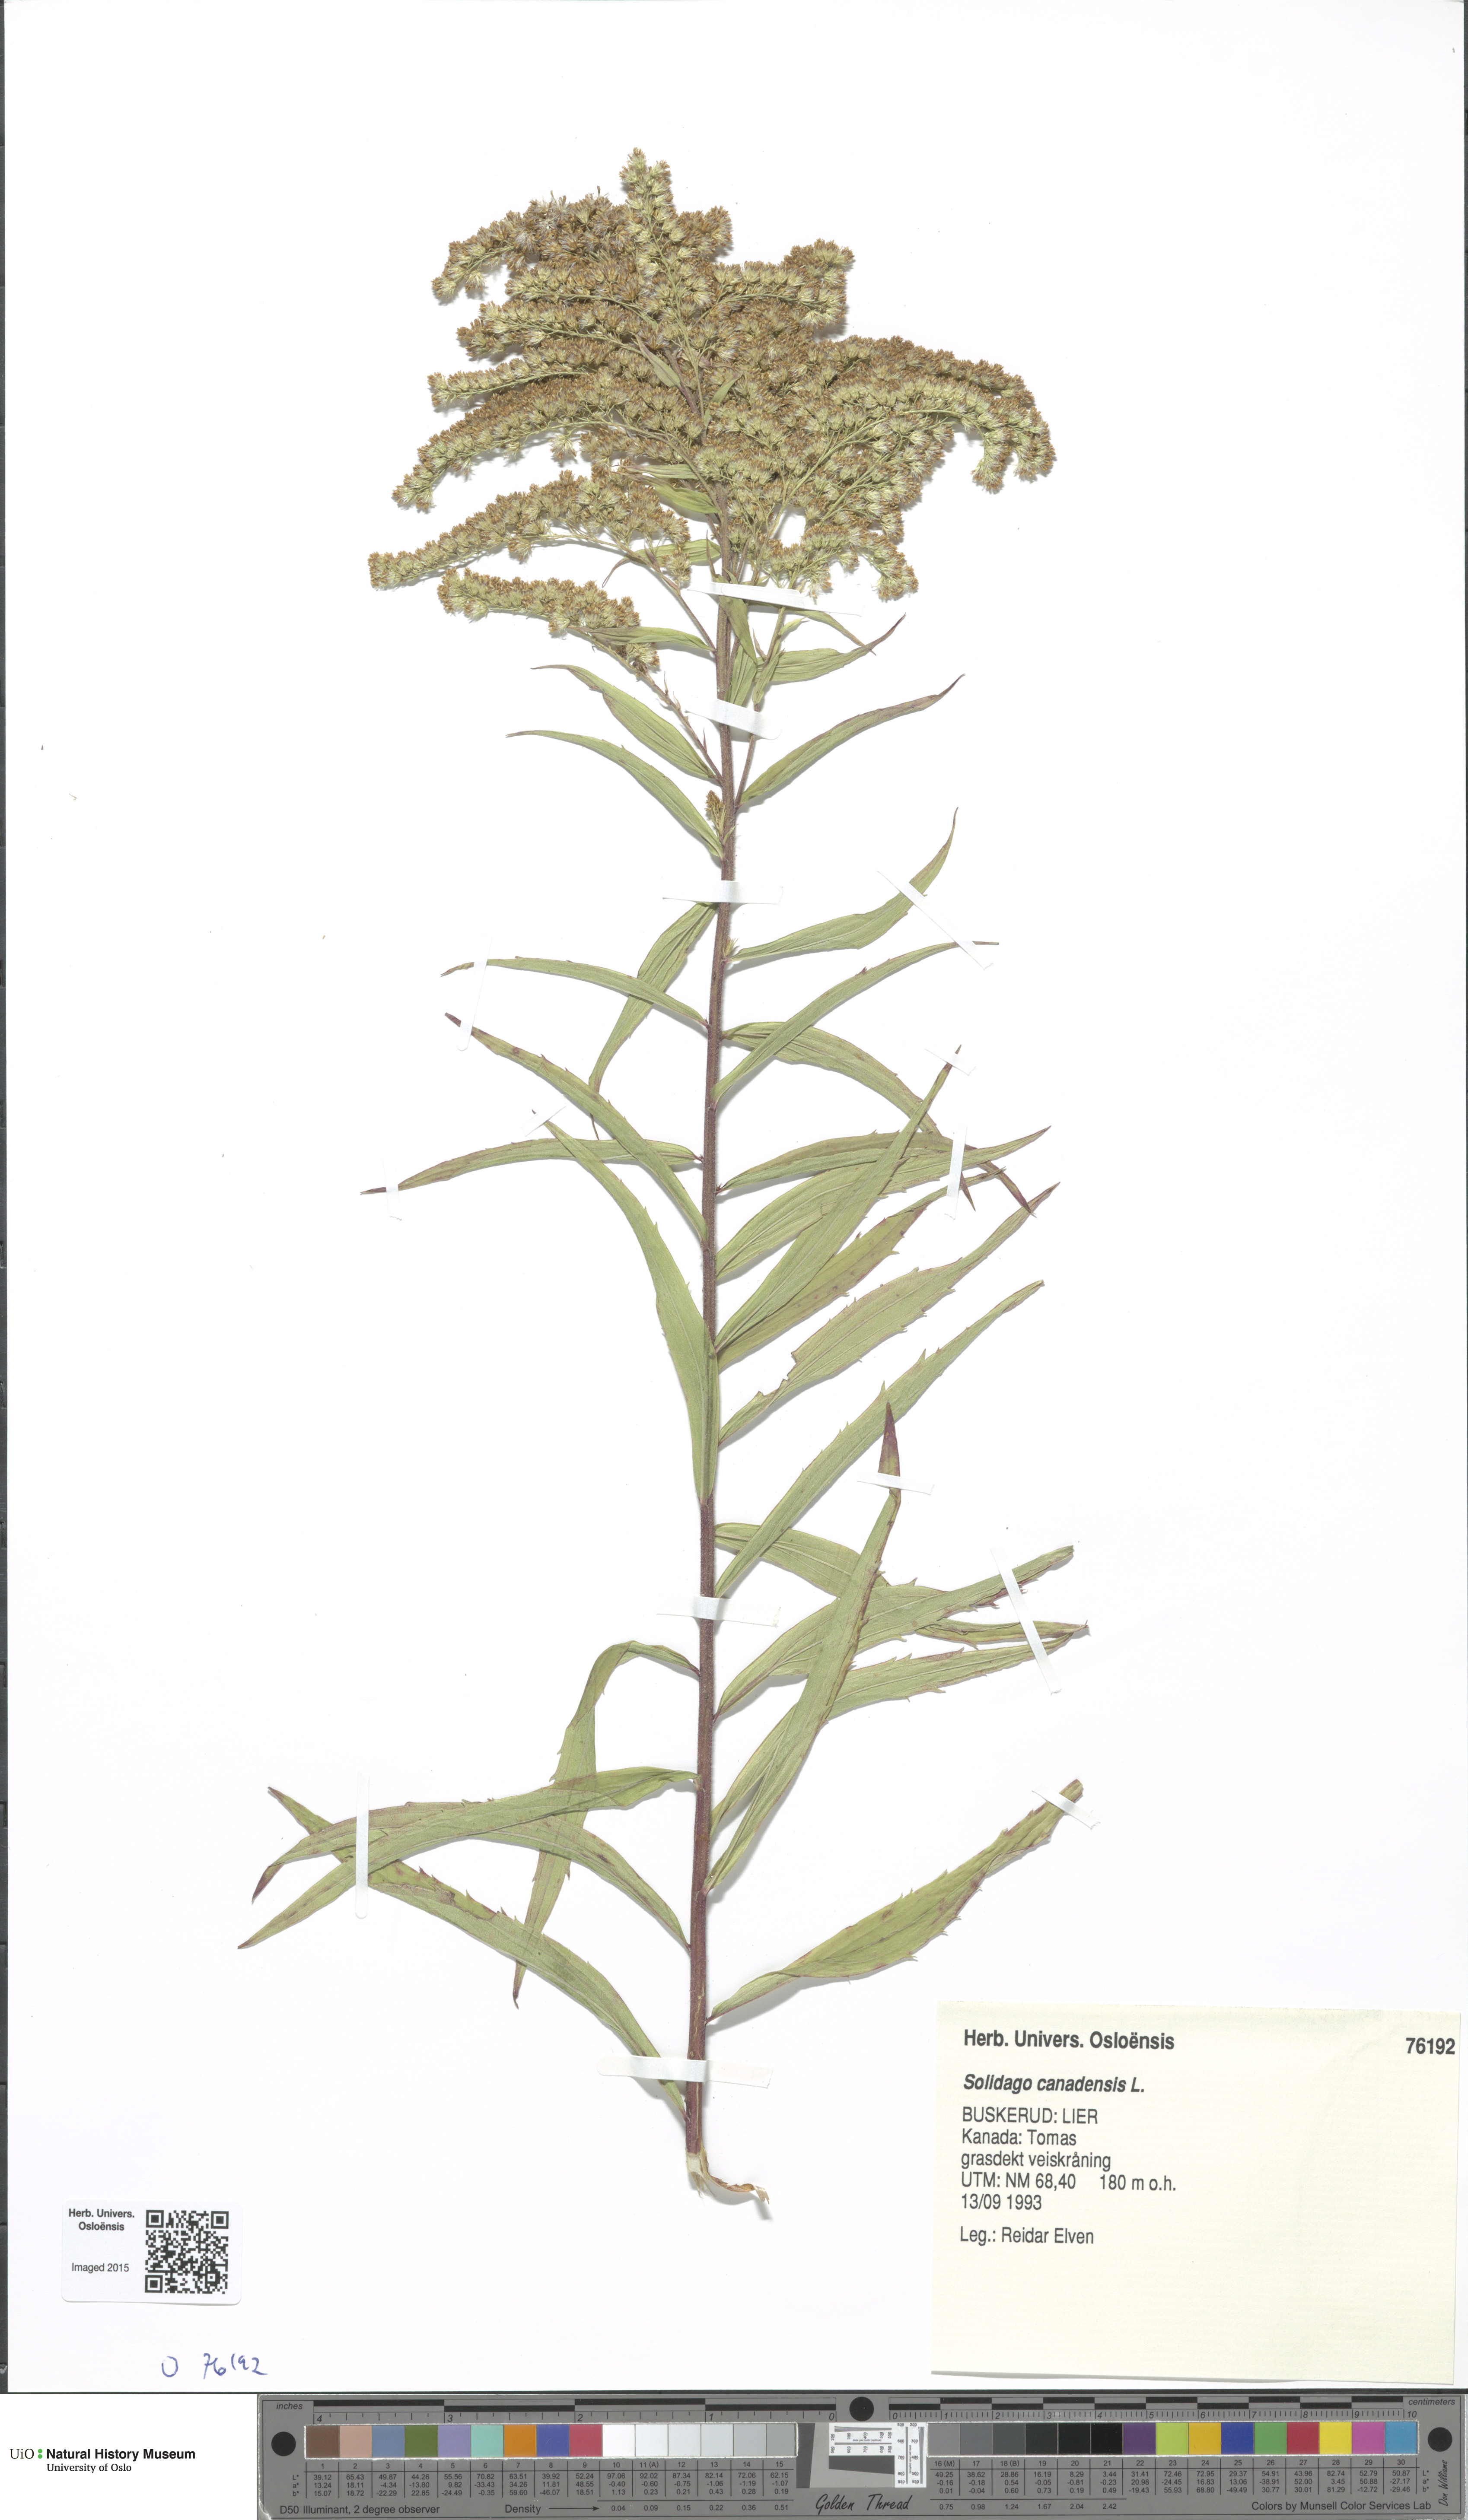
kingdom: Plantae
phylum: Tracheophyta
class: Magnoliopsida
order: Asterales
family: Asteraceae
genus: Solidago
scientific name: Solidago canadensis
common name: Canada goldenrod
